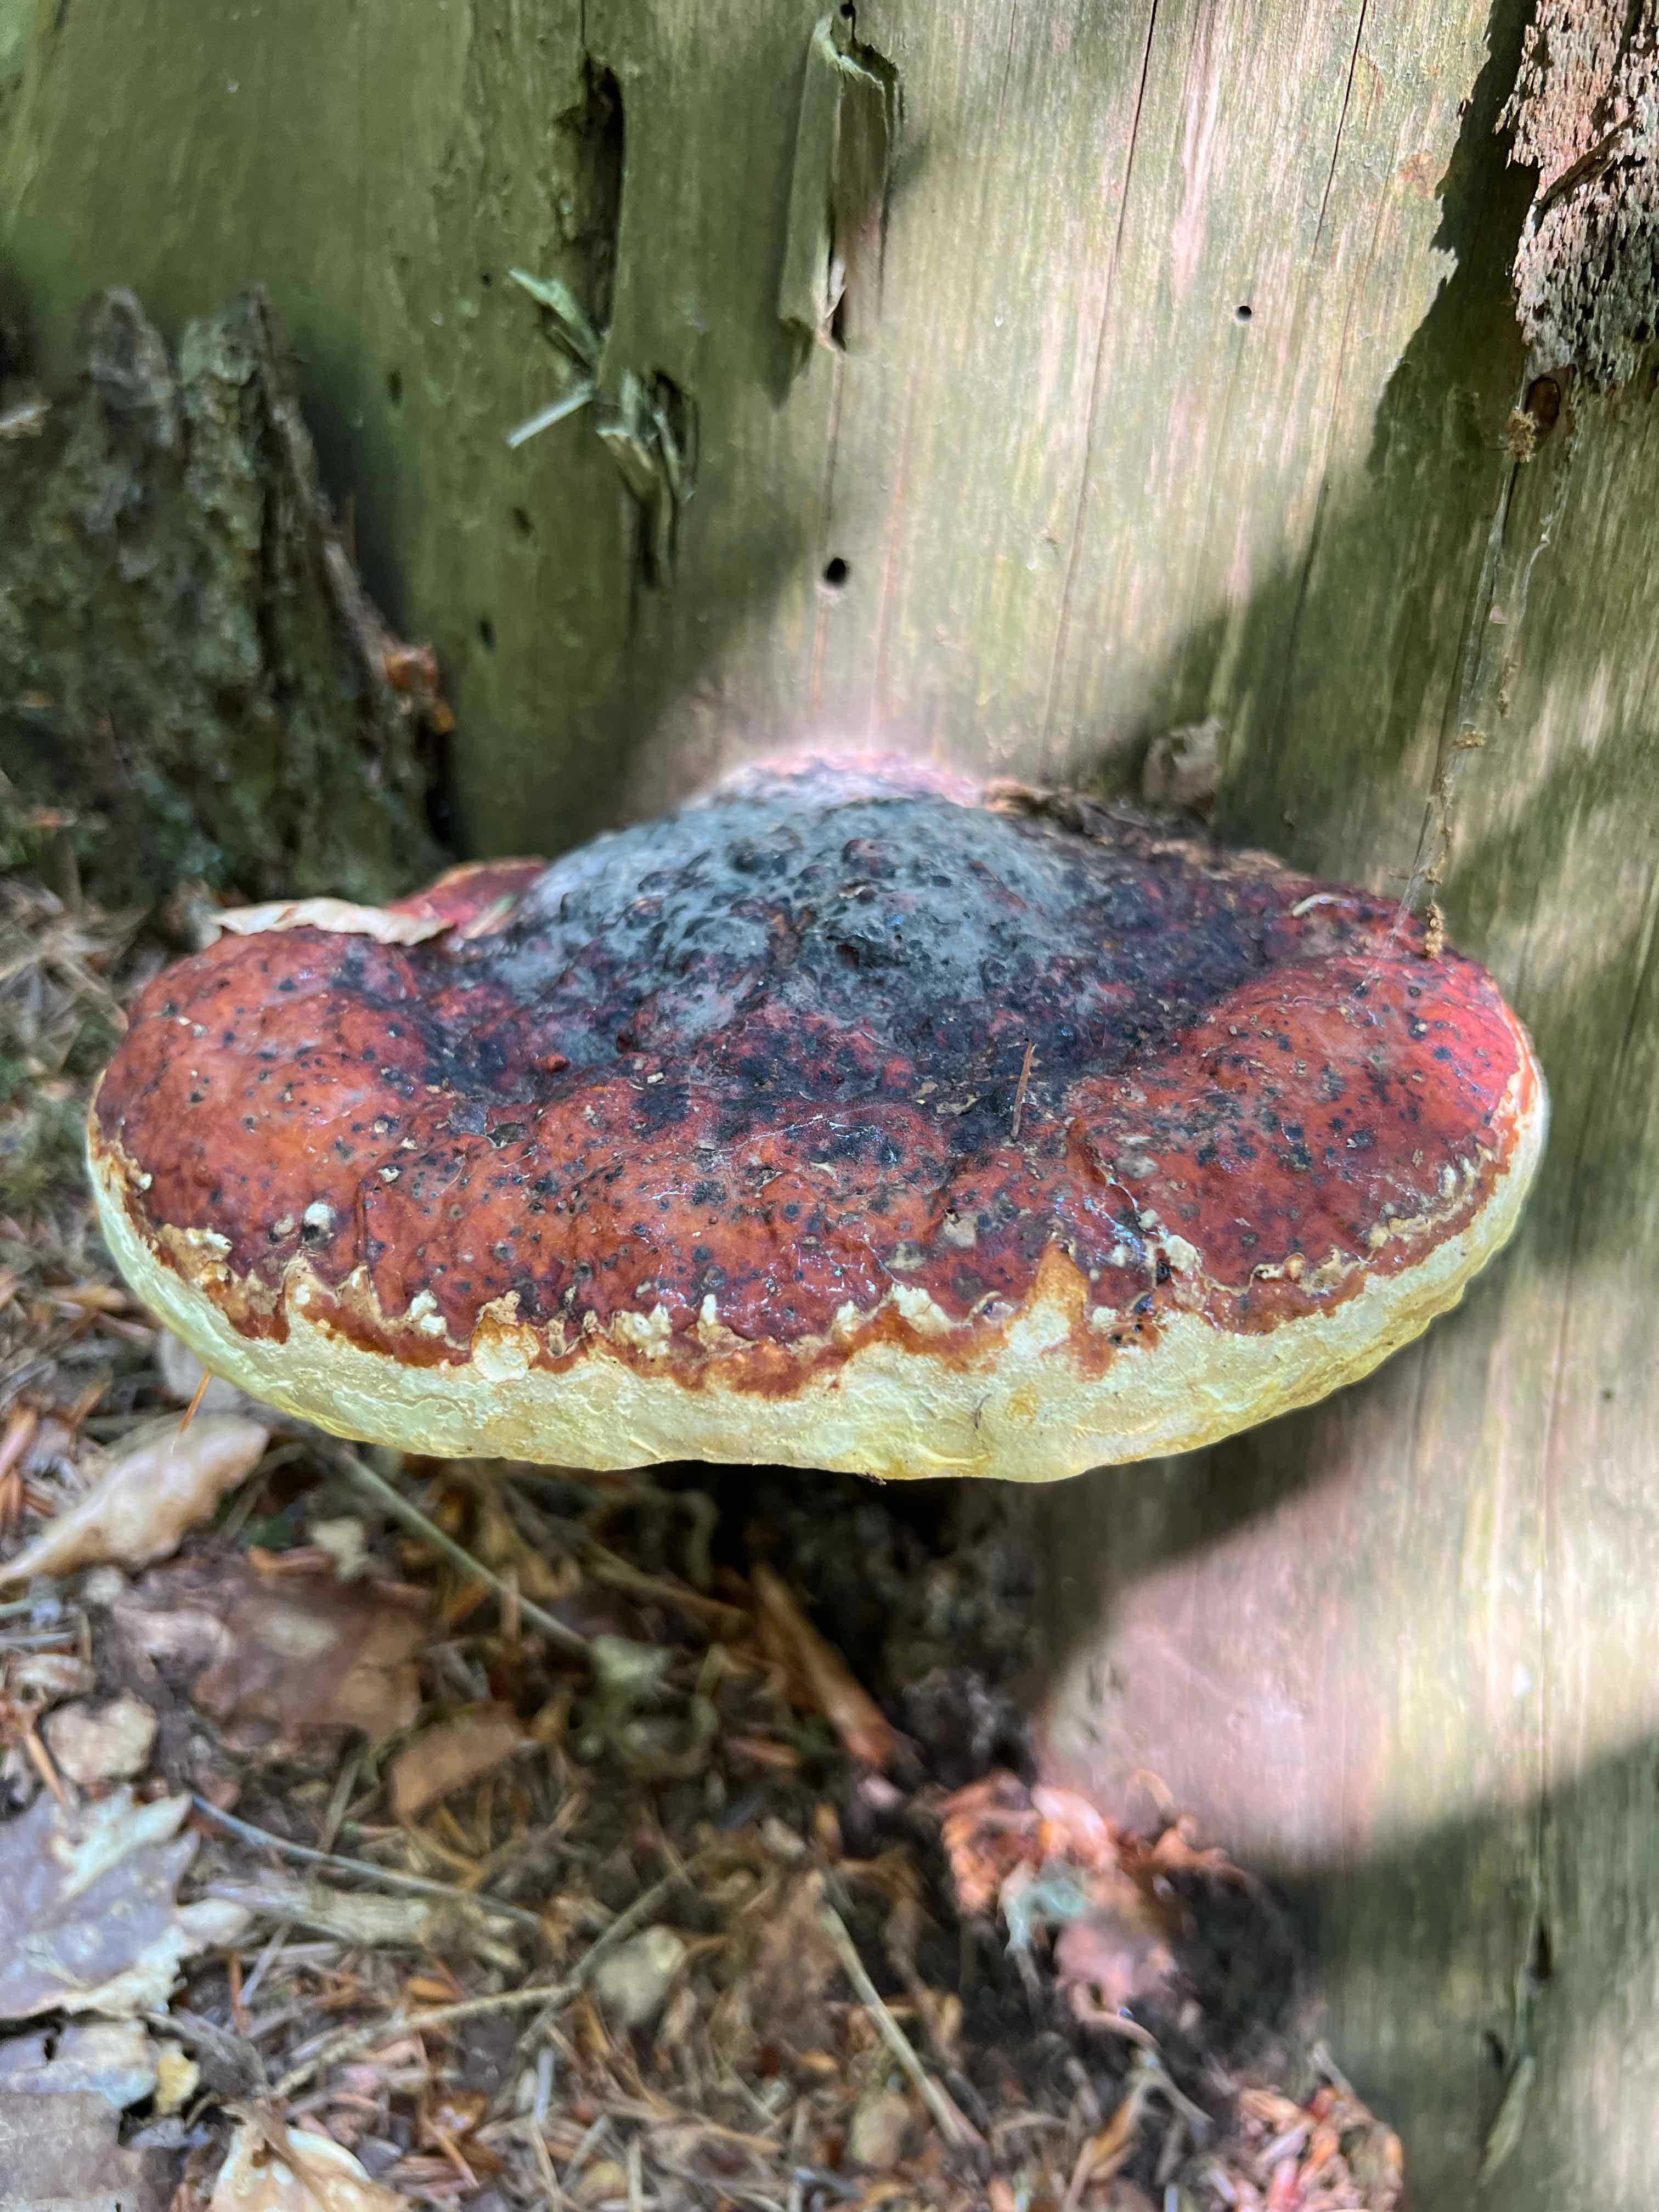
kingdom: Fungi
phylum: Basidiomycota
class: Agaricomycetes
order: Polyporales
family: Fomitopsidaceae
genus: Fomitopsis
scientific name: Fomitopsis pinicola
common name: randbæltet hovporesvamp
